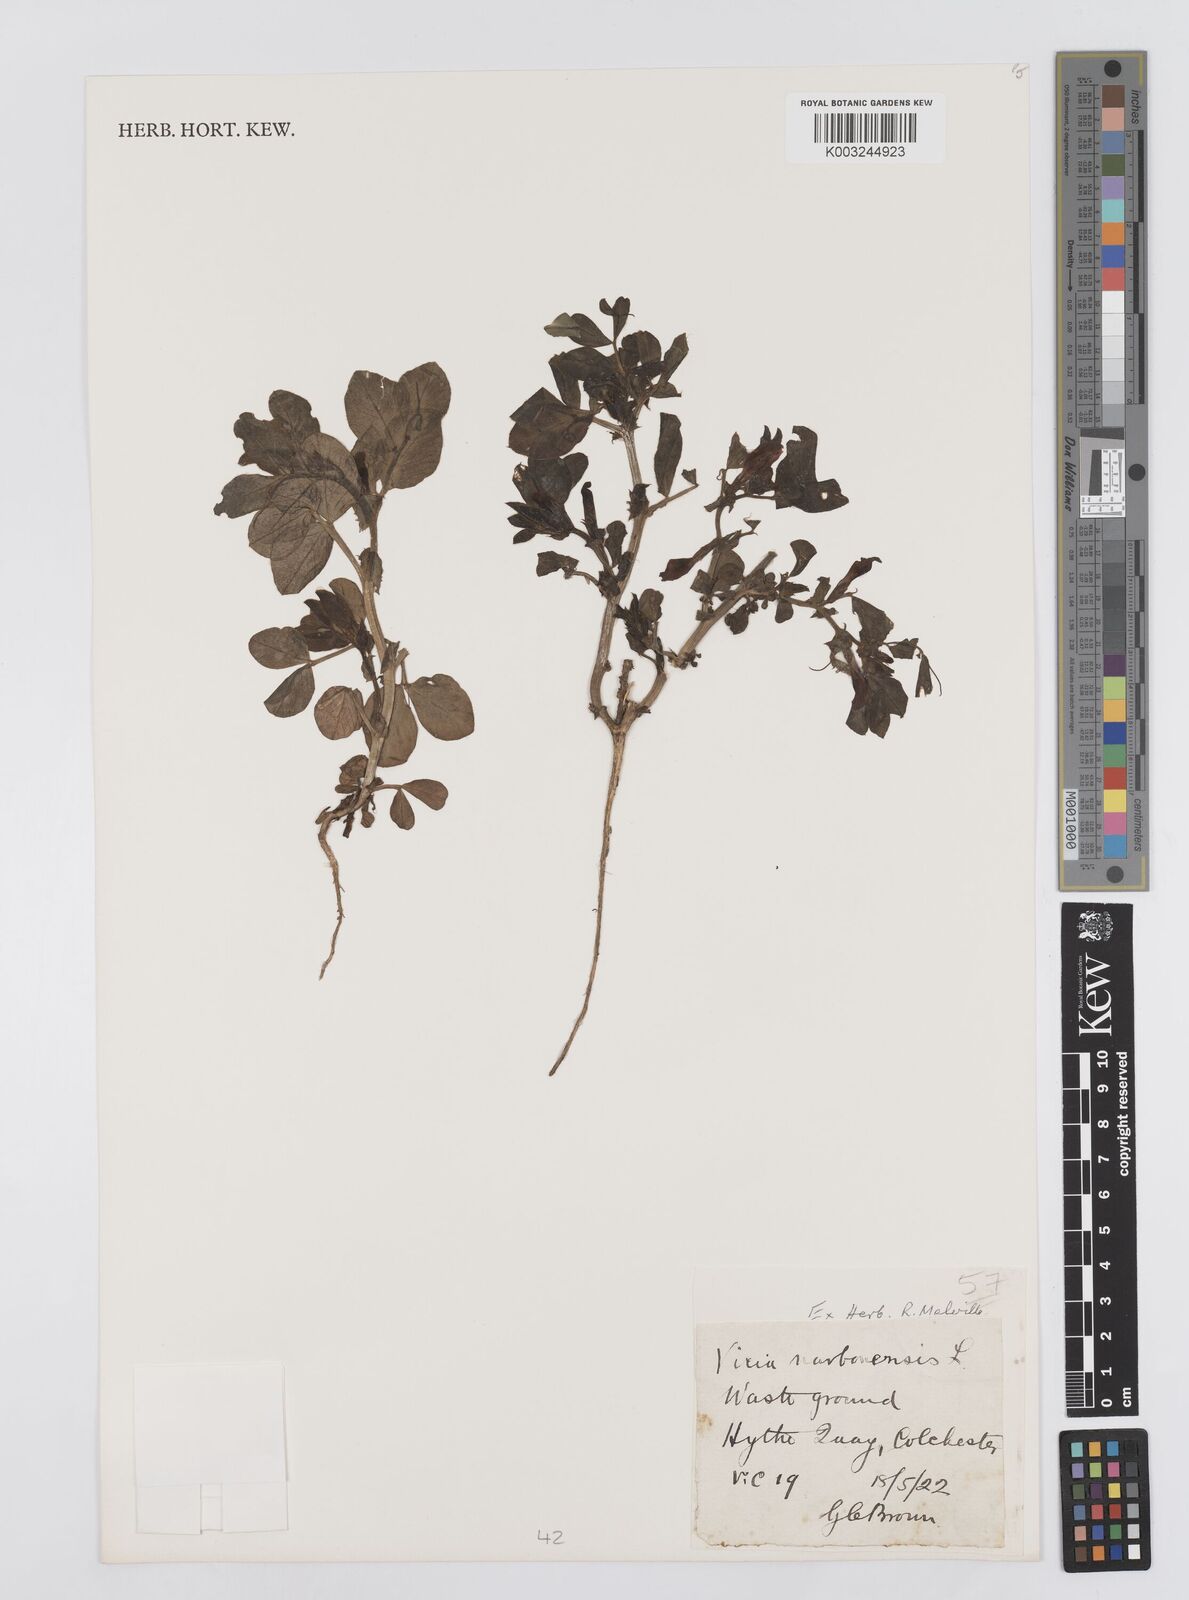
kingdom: Plantae
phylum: Tracheophyta
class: Magnoliopsida
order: Fabales
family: Fabaceae
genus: Vicia
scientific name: Vicia narbonensis
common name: Narbonne vetch
